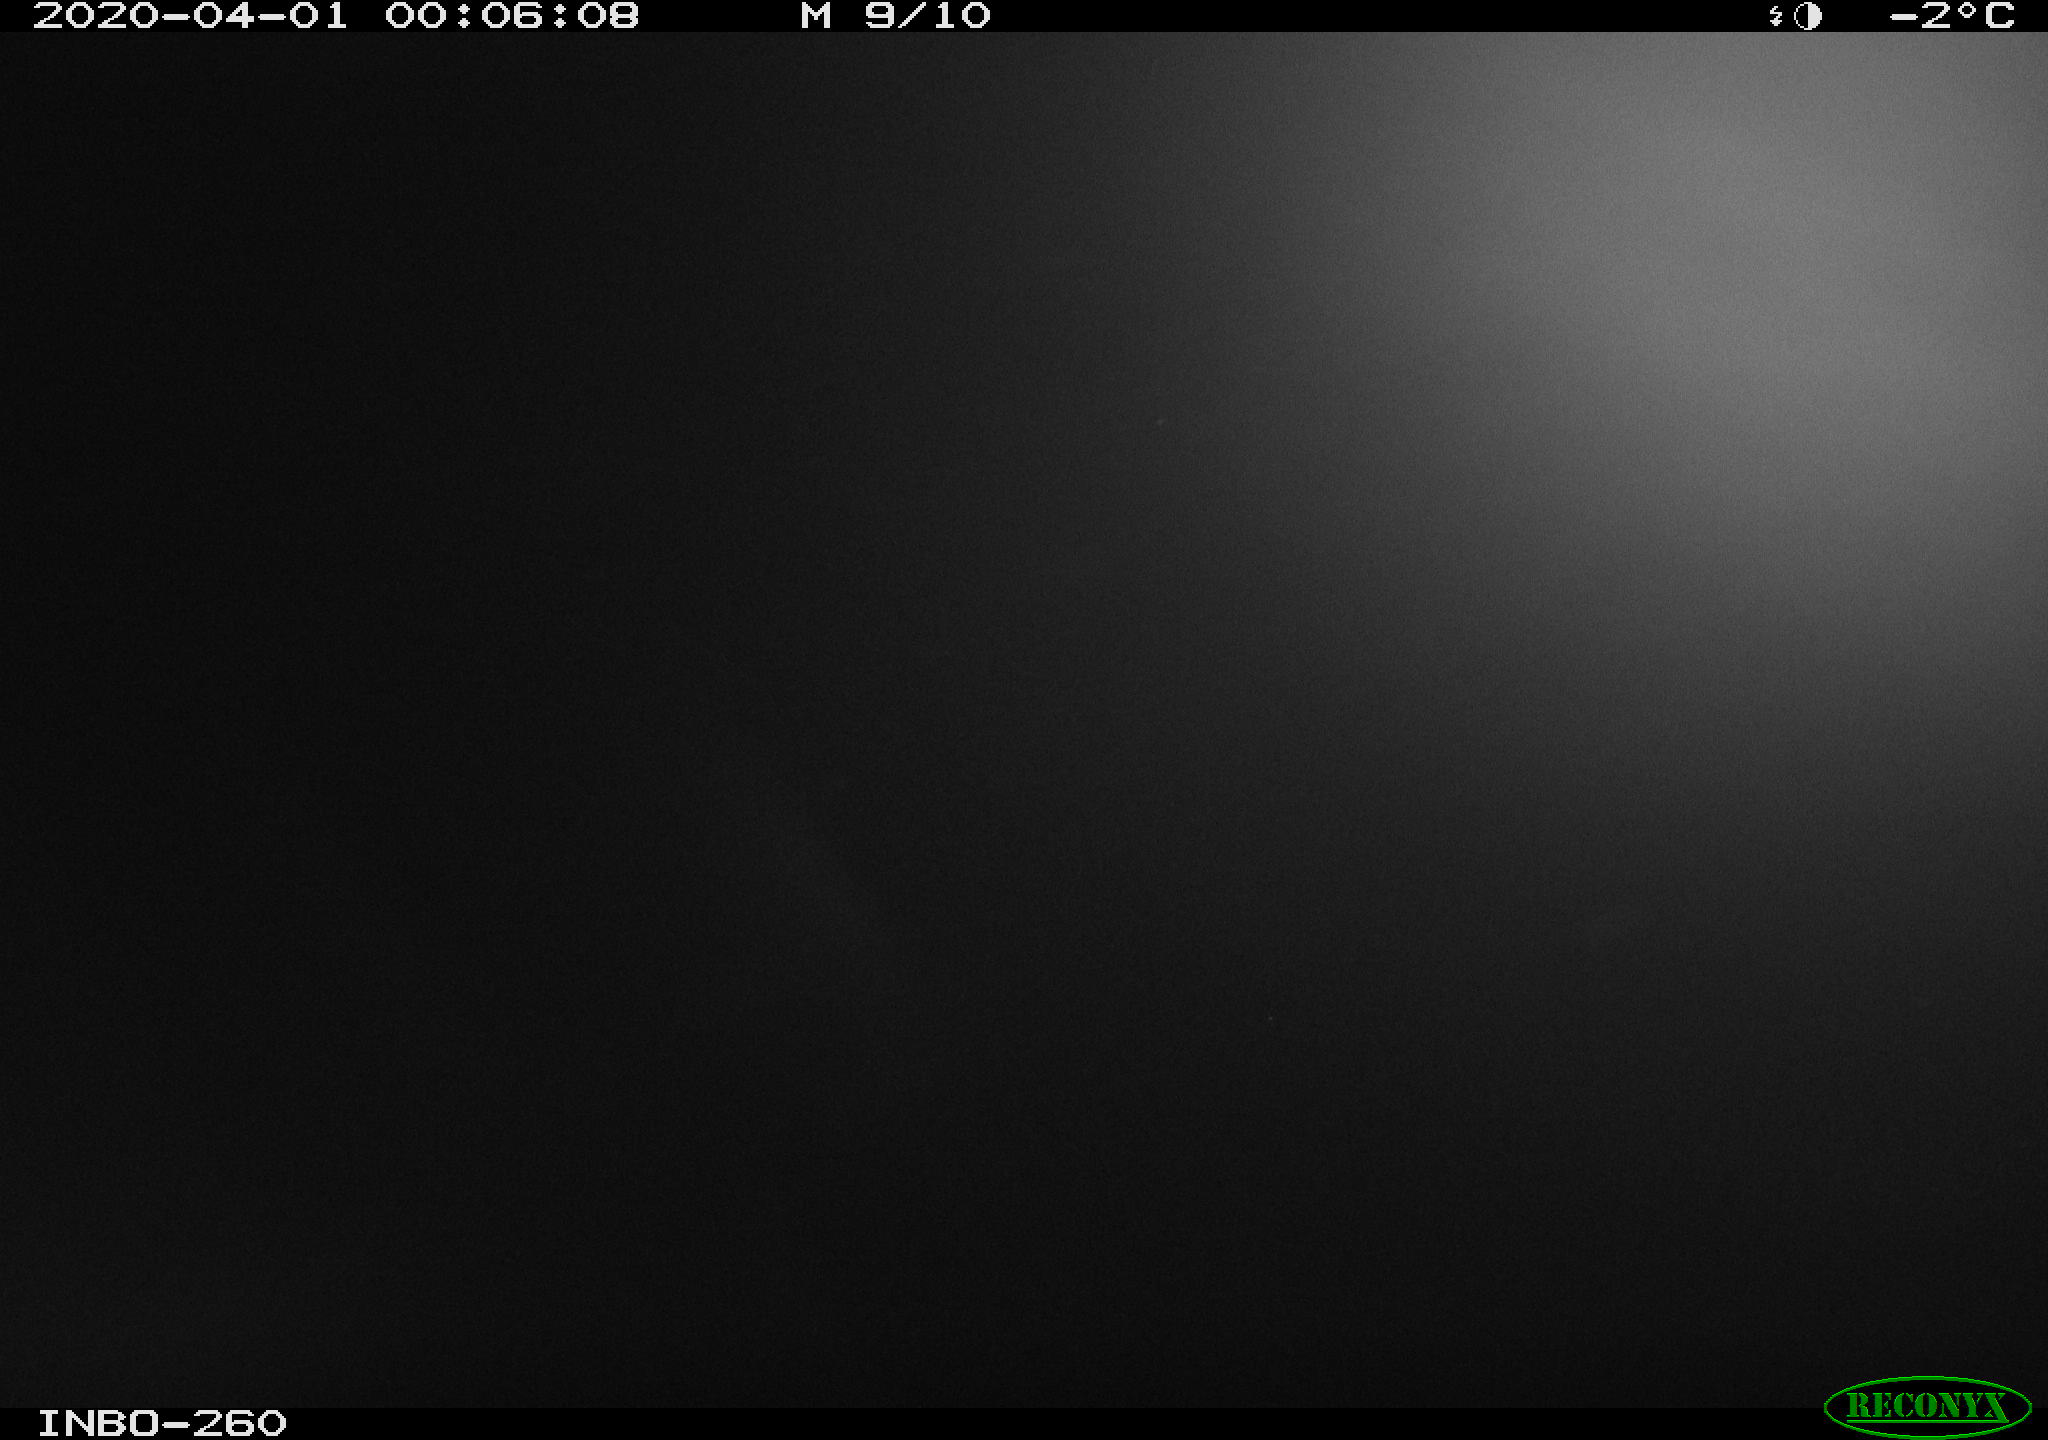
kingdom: Animalia
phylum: Chordata
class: Aves
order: Anseriformes
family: Anatidae
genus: Anas
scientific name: Anas platyrhynchos
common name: Mallard
